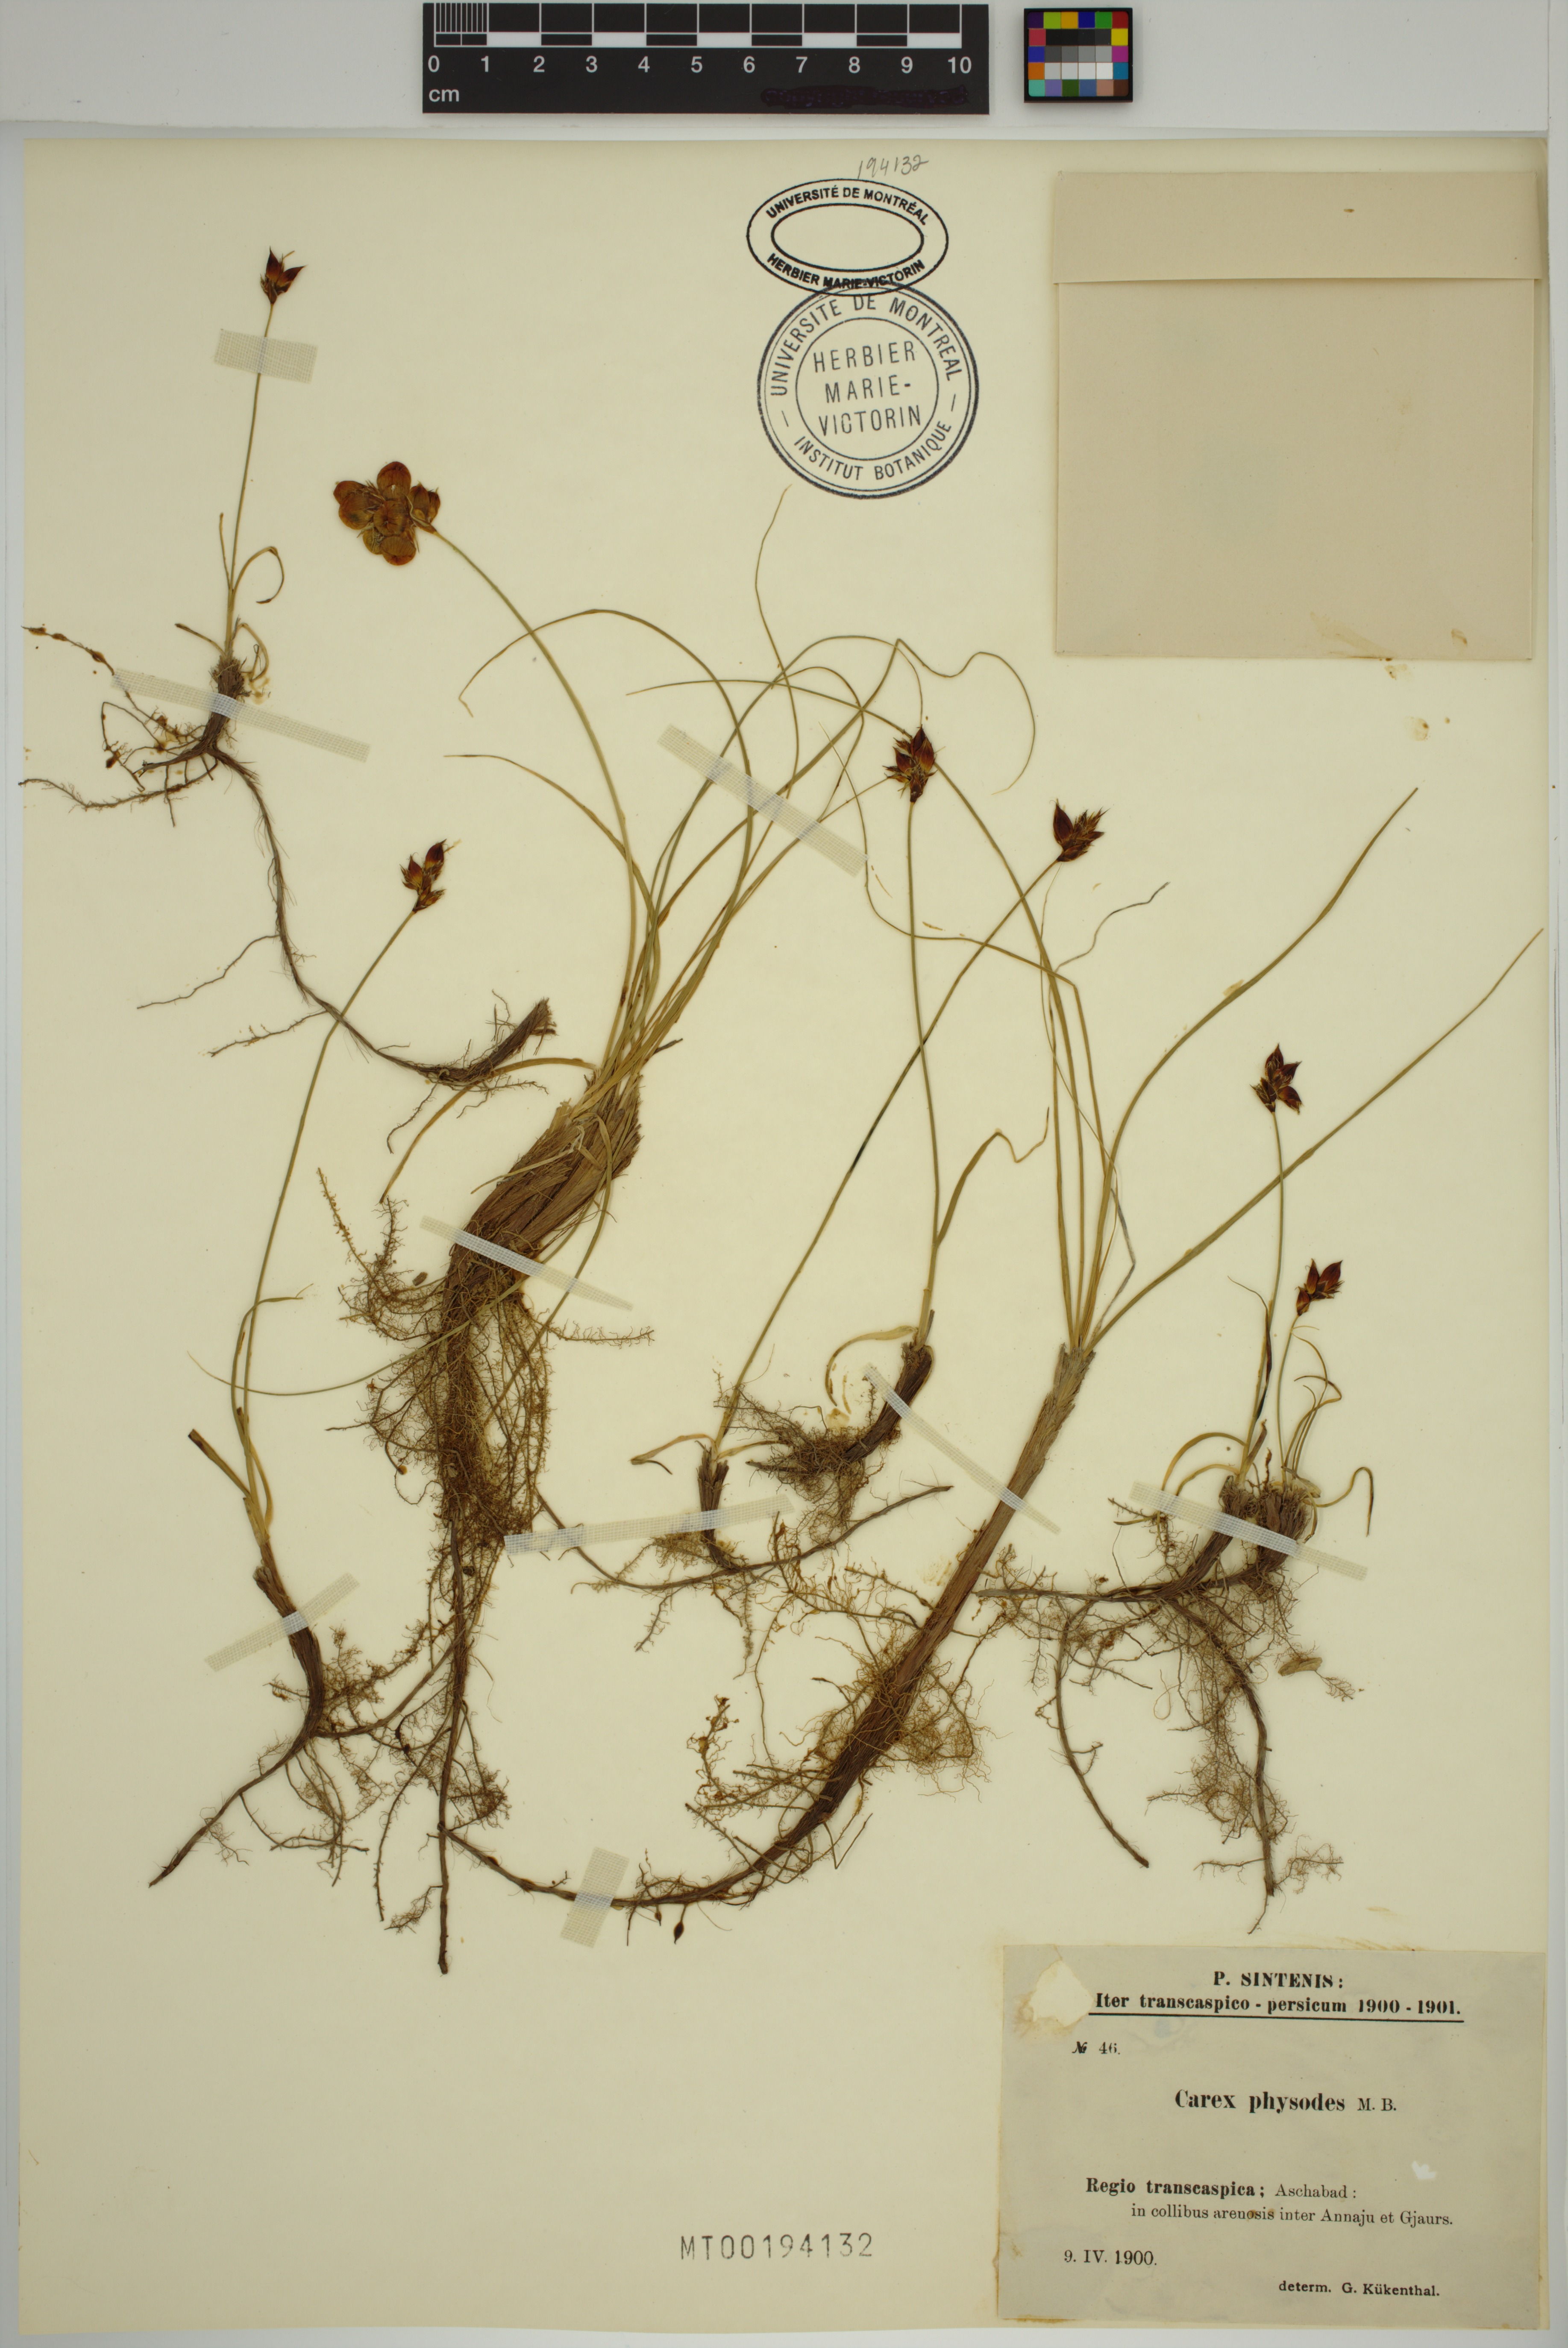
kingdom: Plantae
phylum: Tracheophyta
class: Liliopsida
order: Poales
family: Cyperaceae
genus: Carex
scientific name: Carex physodes
